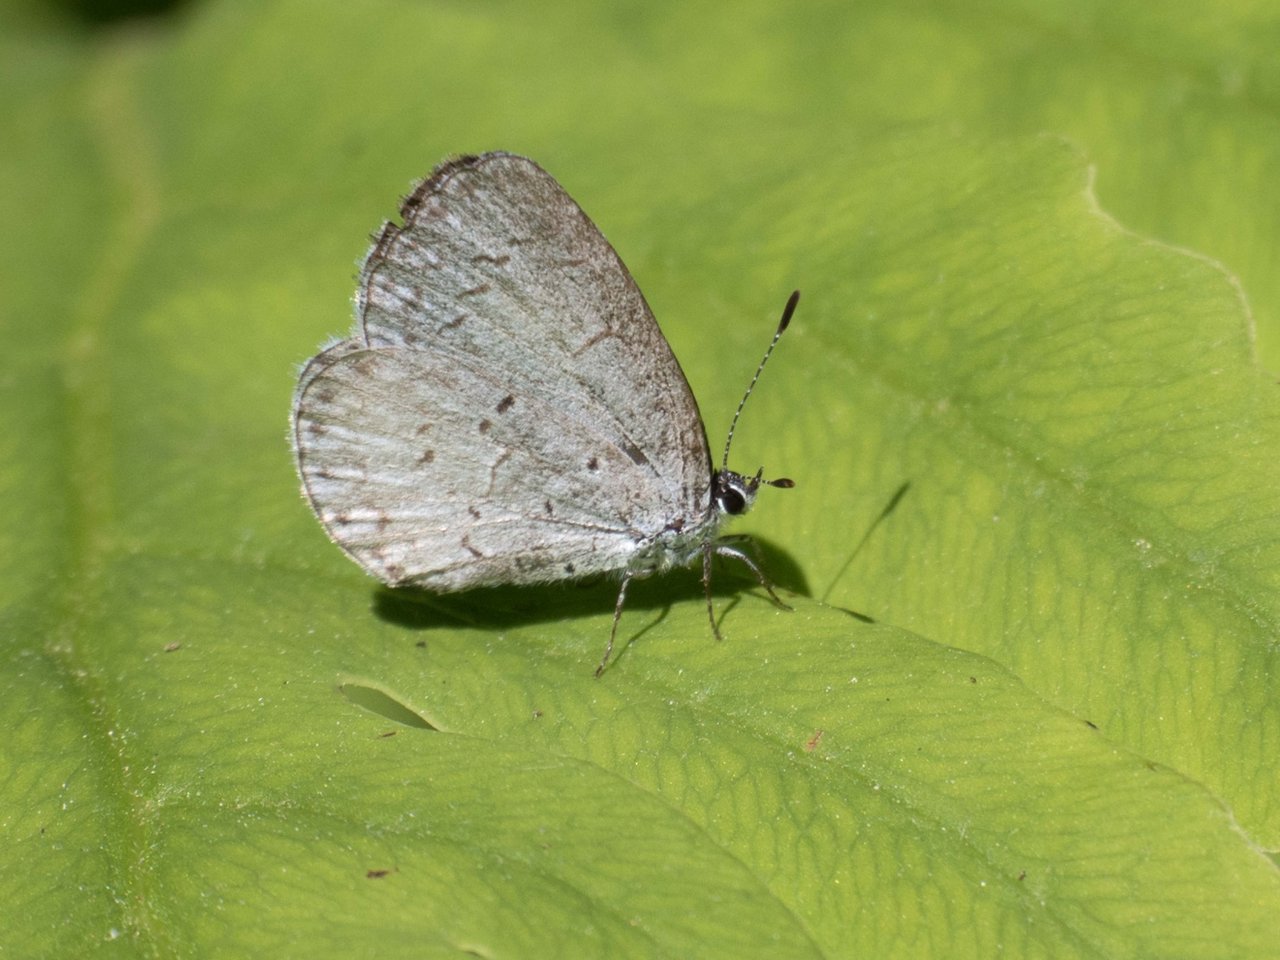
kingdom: Animalia
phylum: Arthropoda
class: Insecta
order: Lepidoptera
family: Lycaenidae
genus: Celastrina
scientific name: Celastrina
